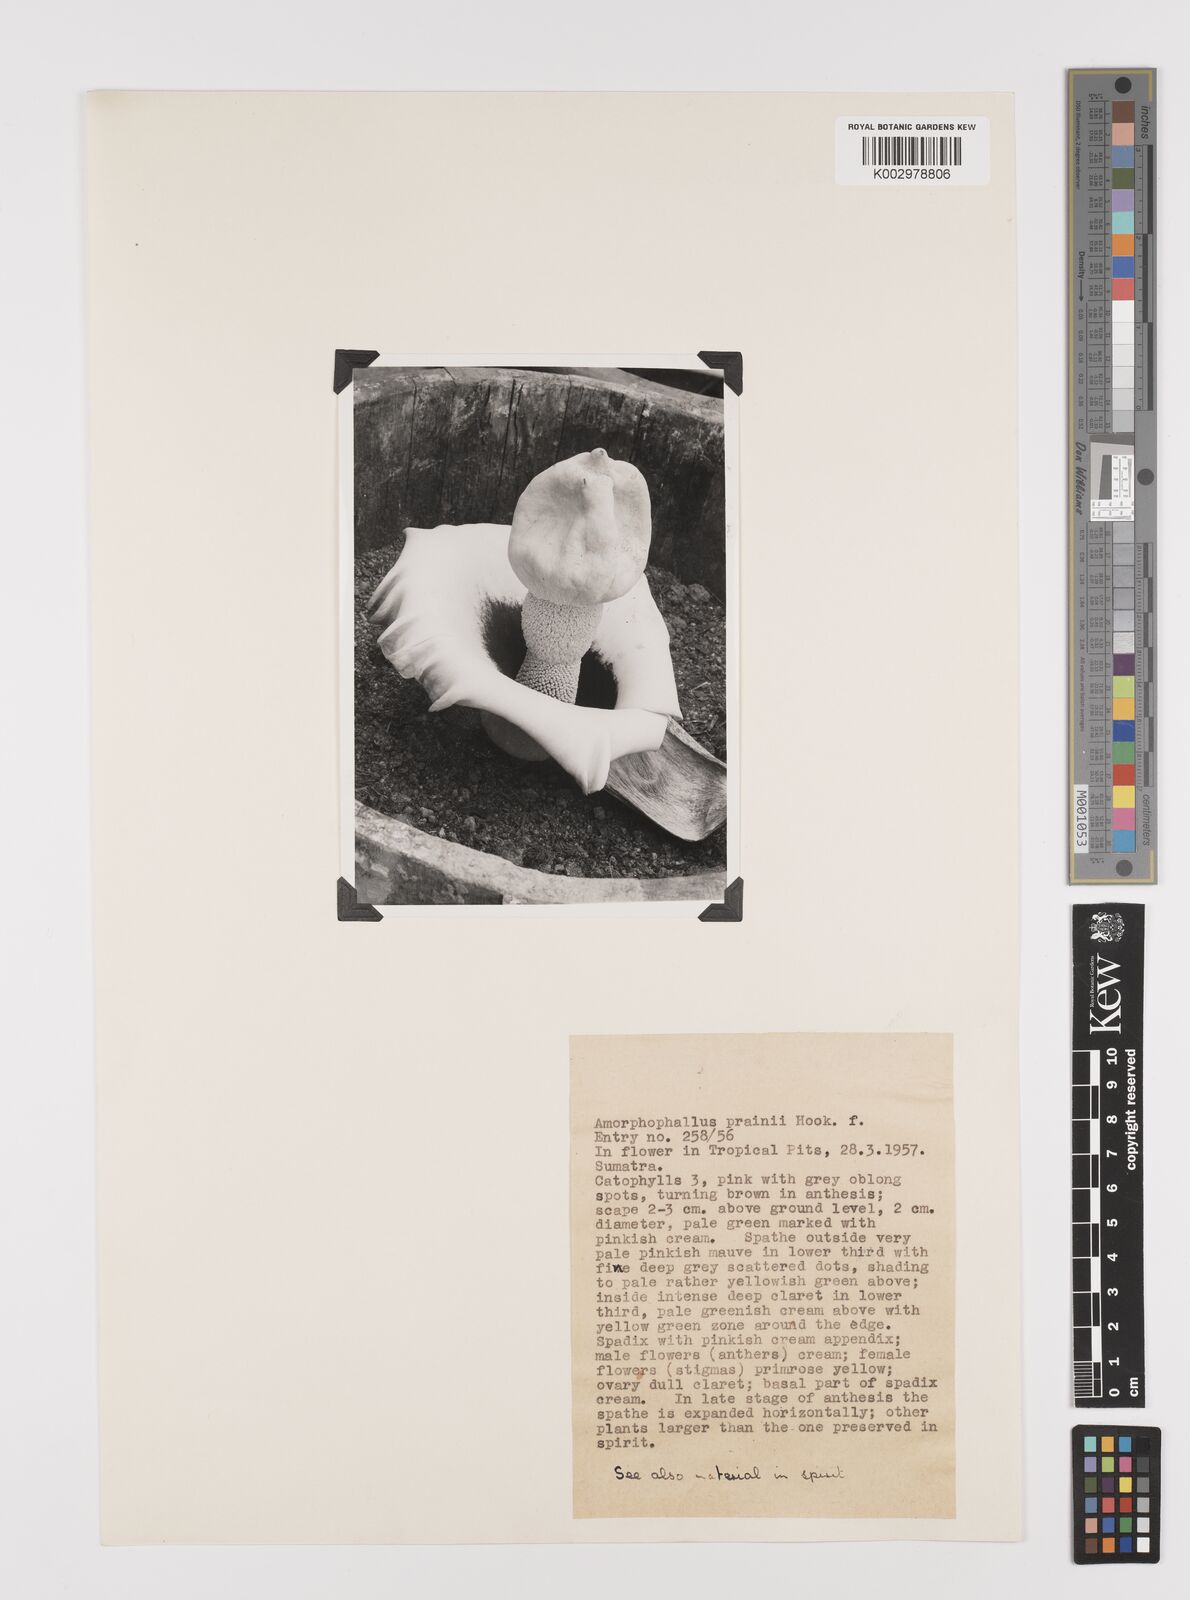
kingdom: Plantae
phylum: Tracheophyta
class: Liliopsida
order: Alismatales
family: Araceae
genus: Amorphophallus
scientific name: Amorphophallus prainii
